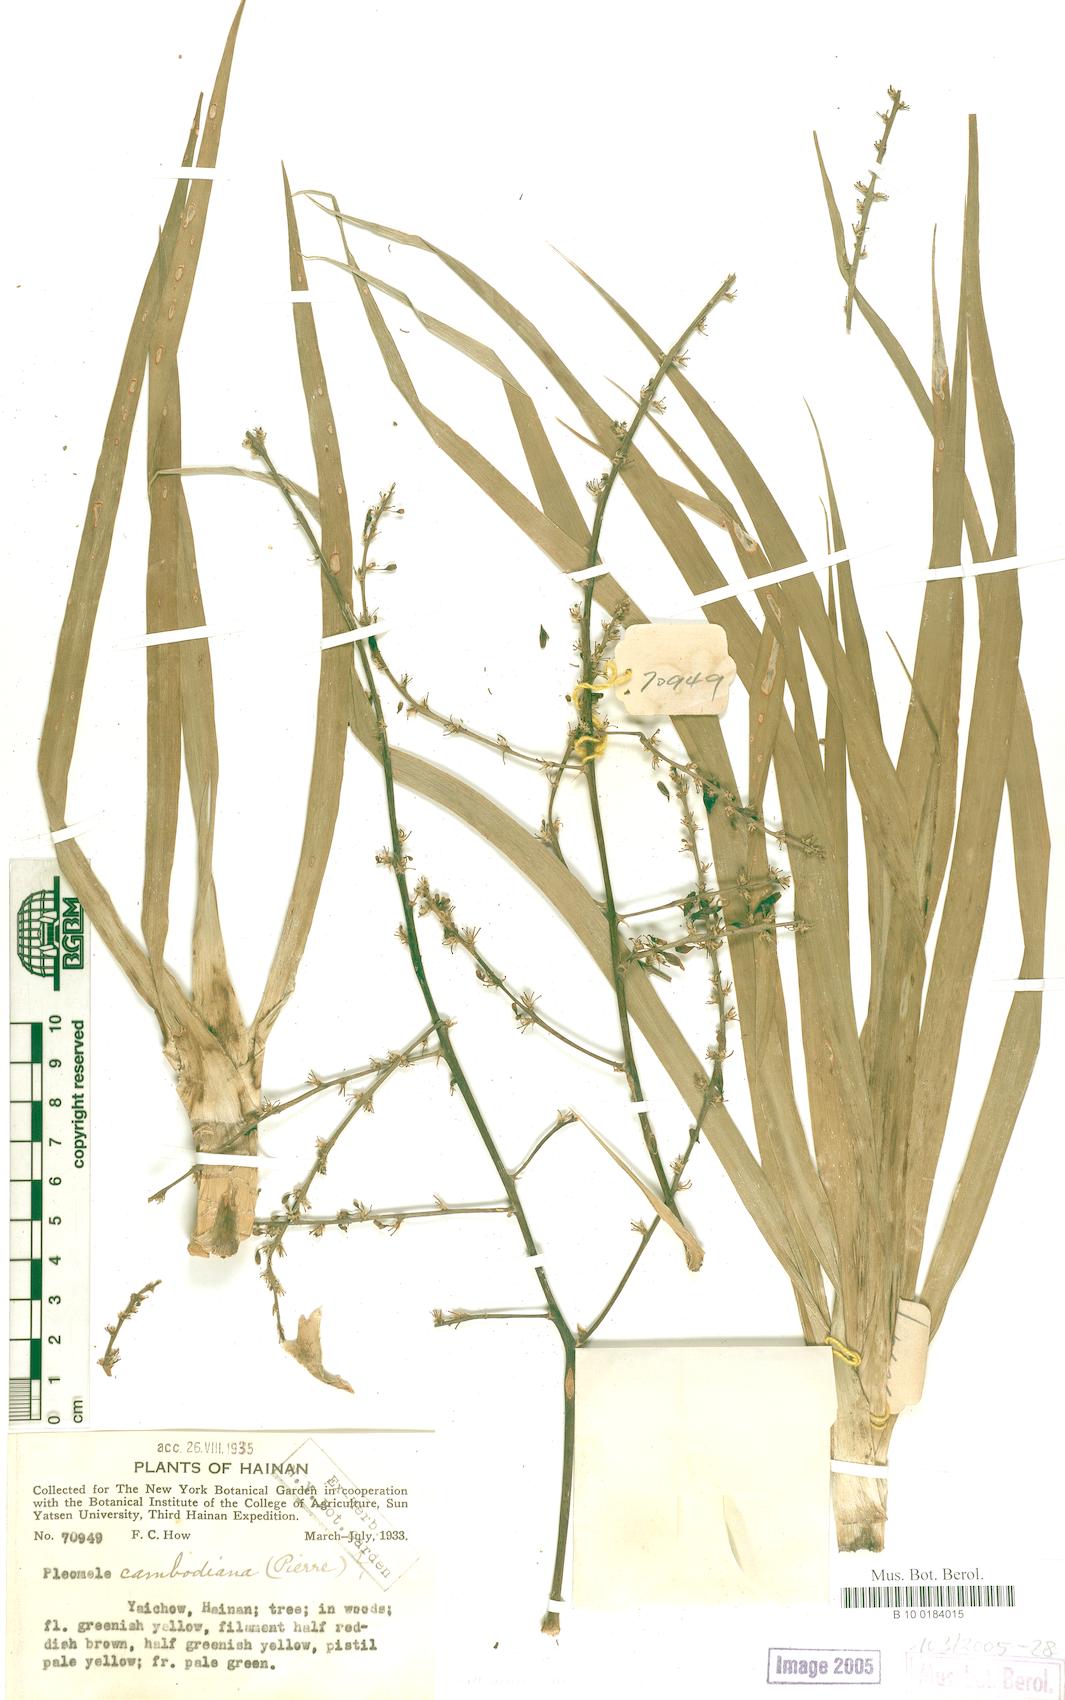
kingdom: Plantae
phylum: Tracheophyta
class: Liliopsida
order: Asparagales
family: Asparagaceae
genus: Dracaena
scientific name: Dracaena cambodiana
